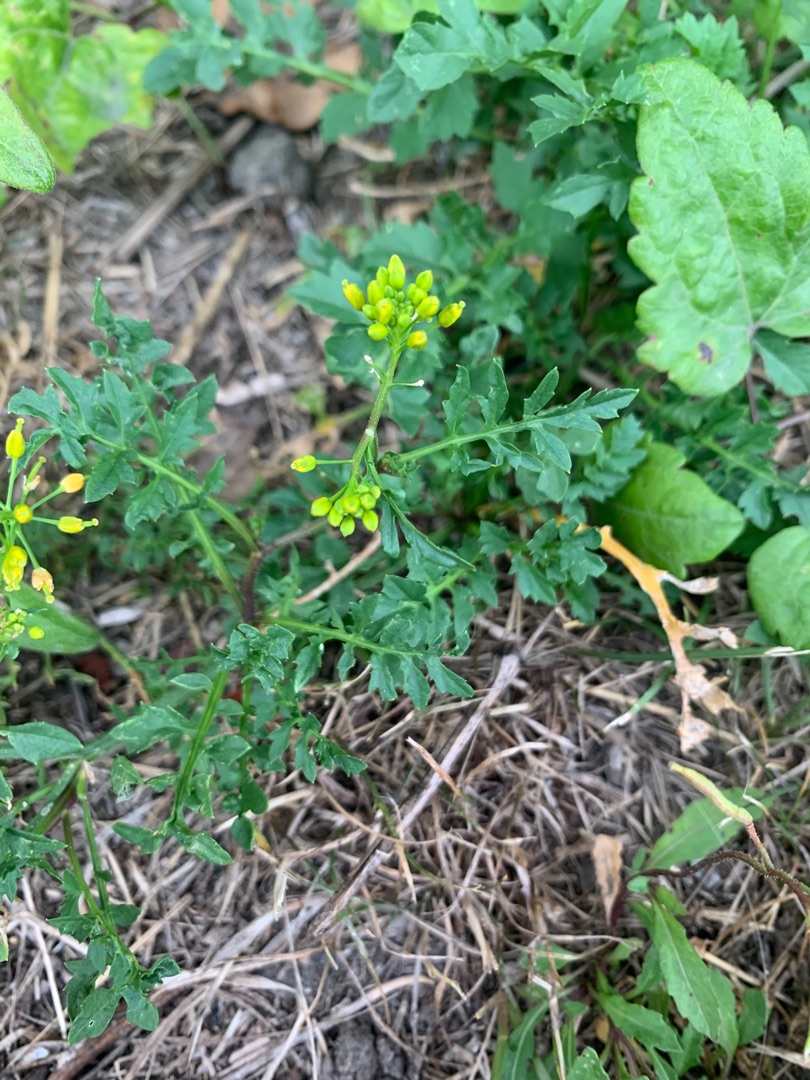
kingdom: Plantae
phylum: Tracheophyta
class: Magnoliopsida
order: Brassicales
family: Brassicaceae
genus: Rorippa
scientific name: Rorippa sylvestris
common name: Vej-guldkarse
